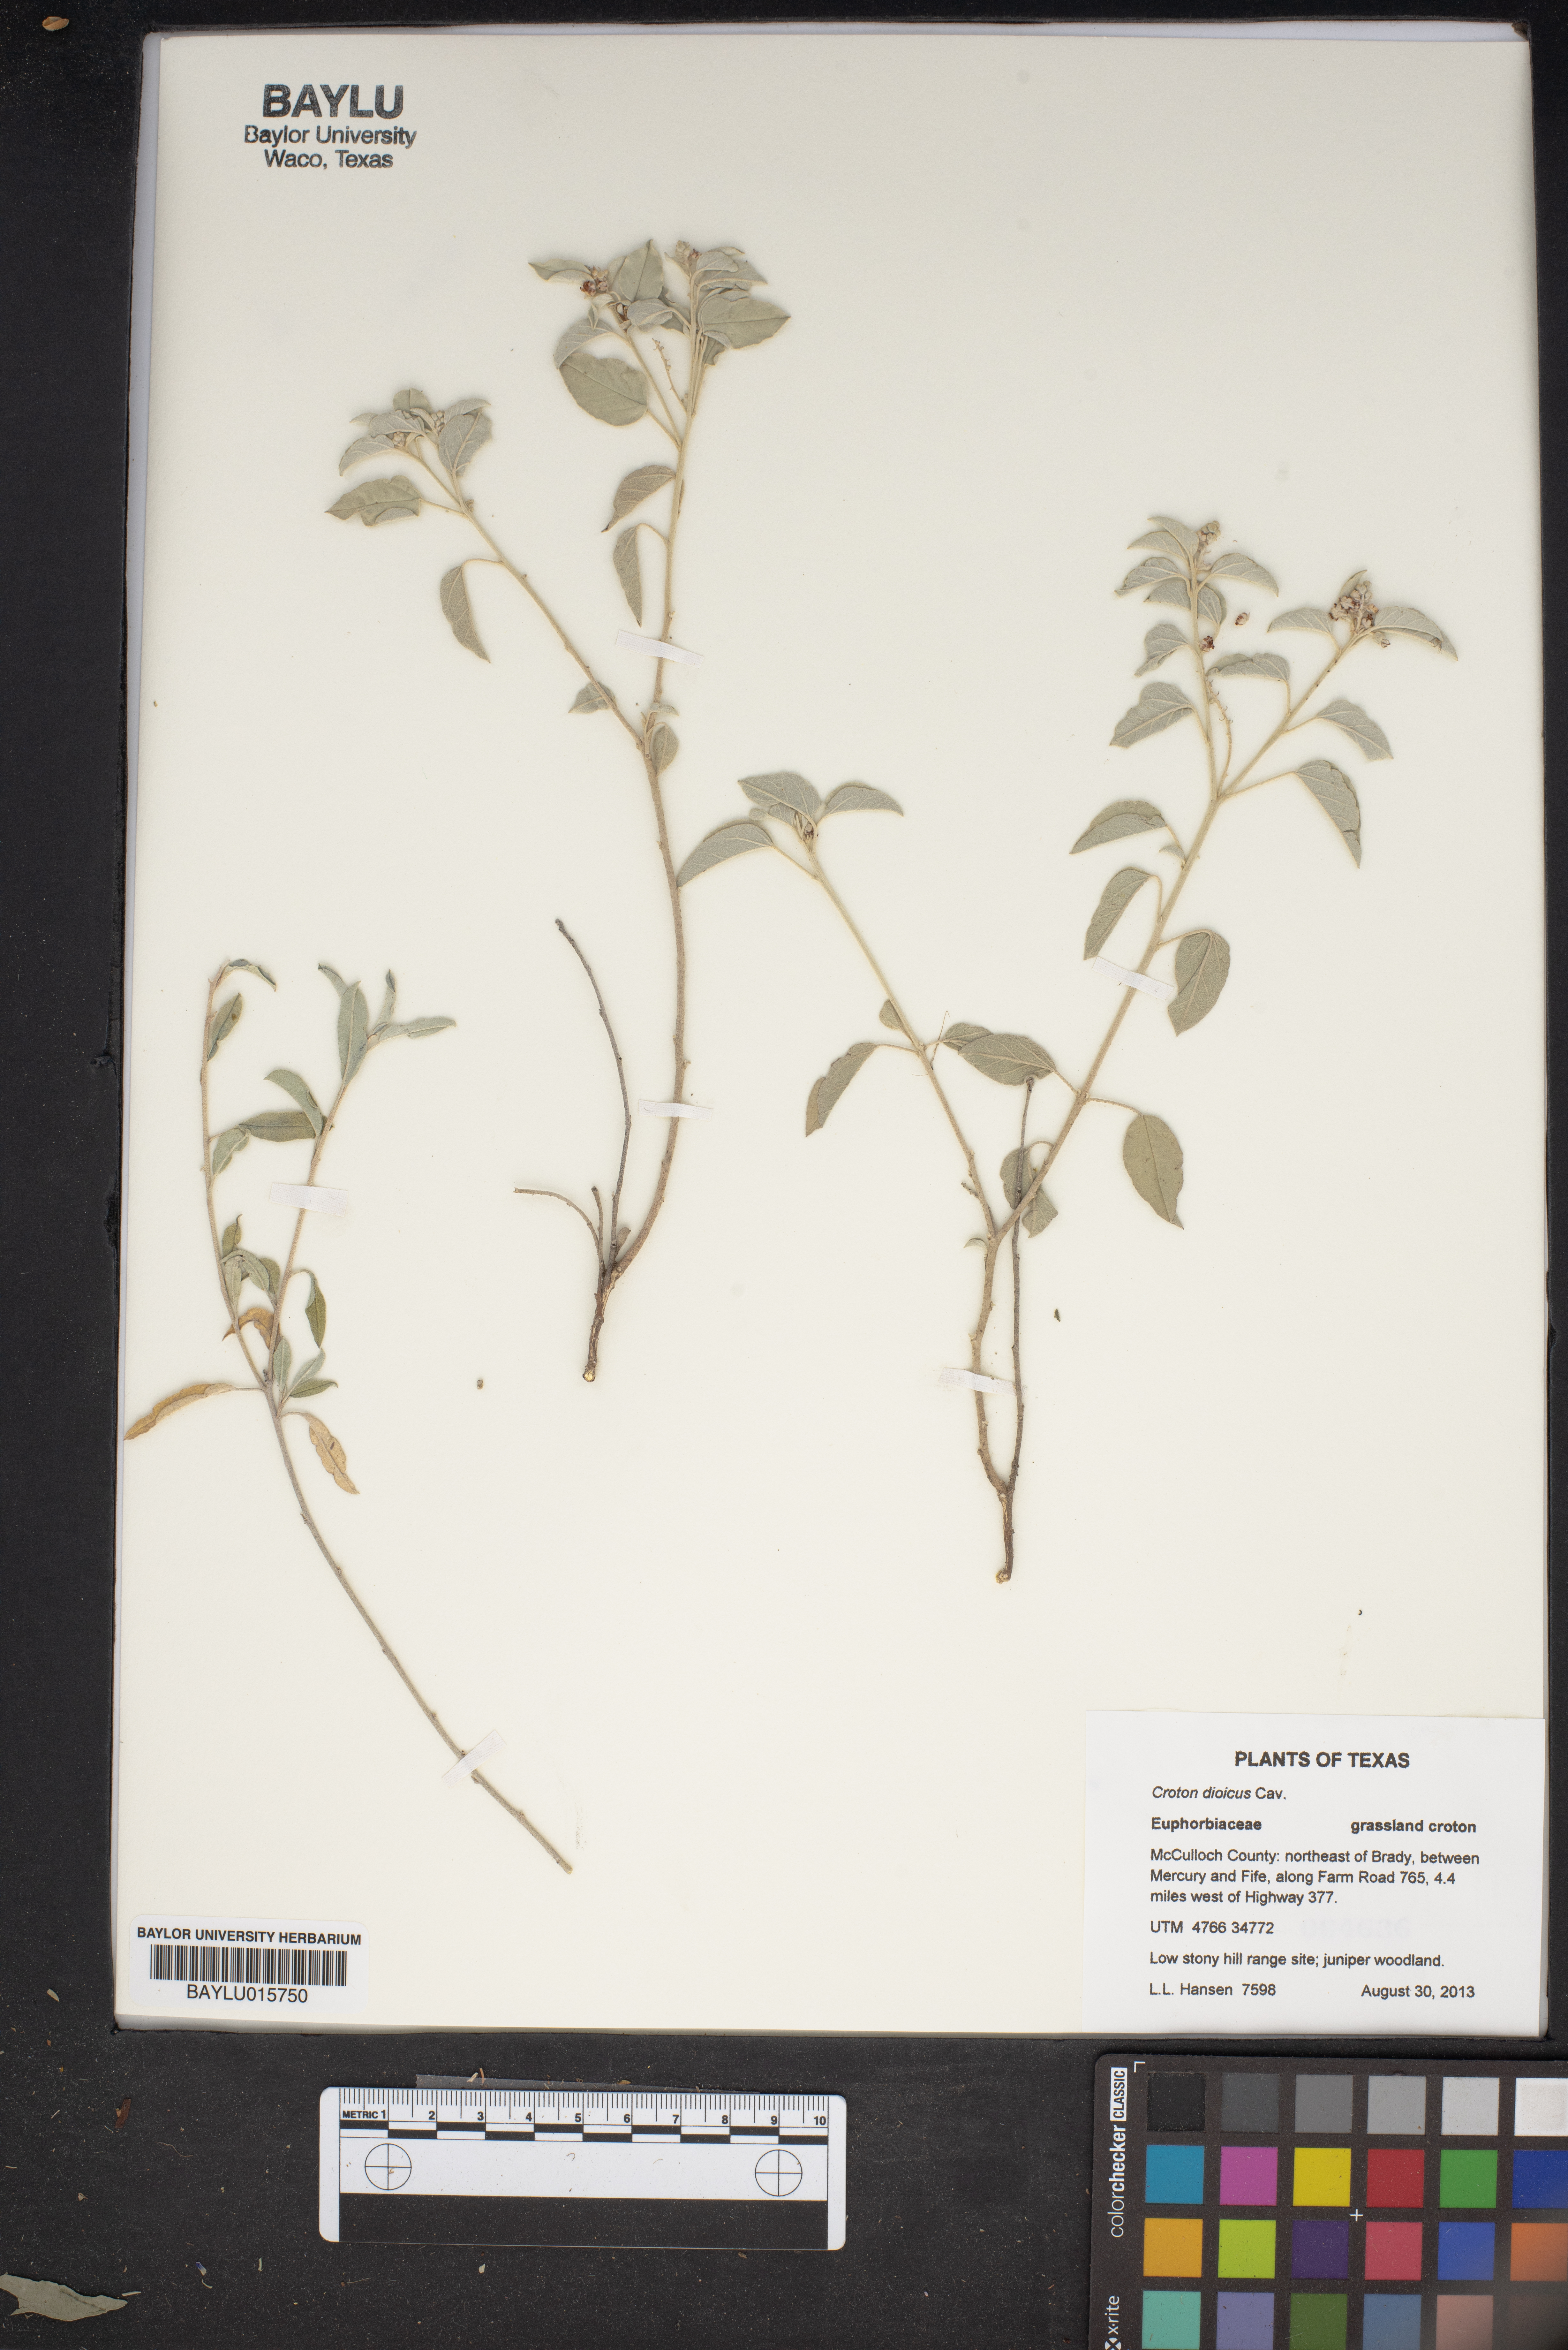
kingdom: Plantae
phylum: Tracheophyta
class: Magnoliopsida
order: Malpighiales
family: Euphorbiaceae
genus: Croton
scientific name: Croton dioicus
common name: Grassland croton
